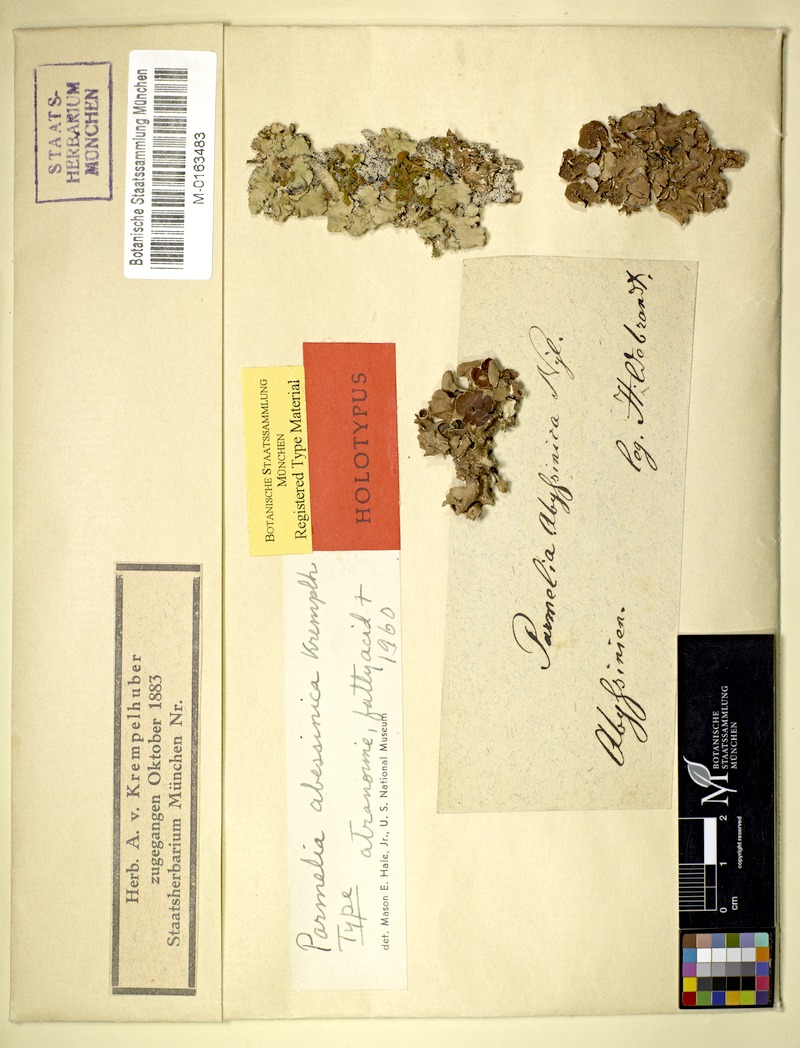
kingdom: Fungi
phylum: Ascomycota
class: Lecanoromycetes
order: Lecanorales
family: Parmeliaceae
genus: Parmotrema
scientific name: Parmotrema abessinicum
